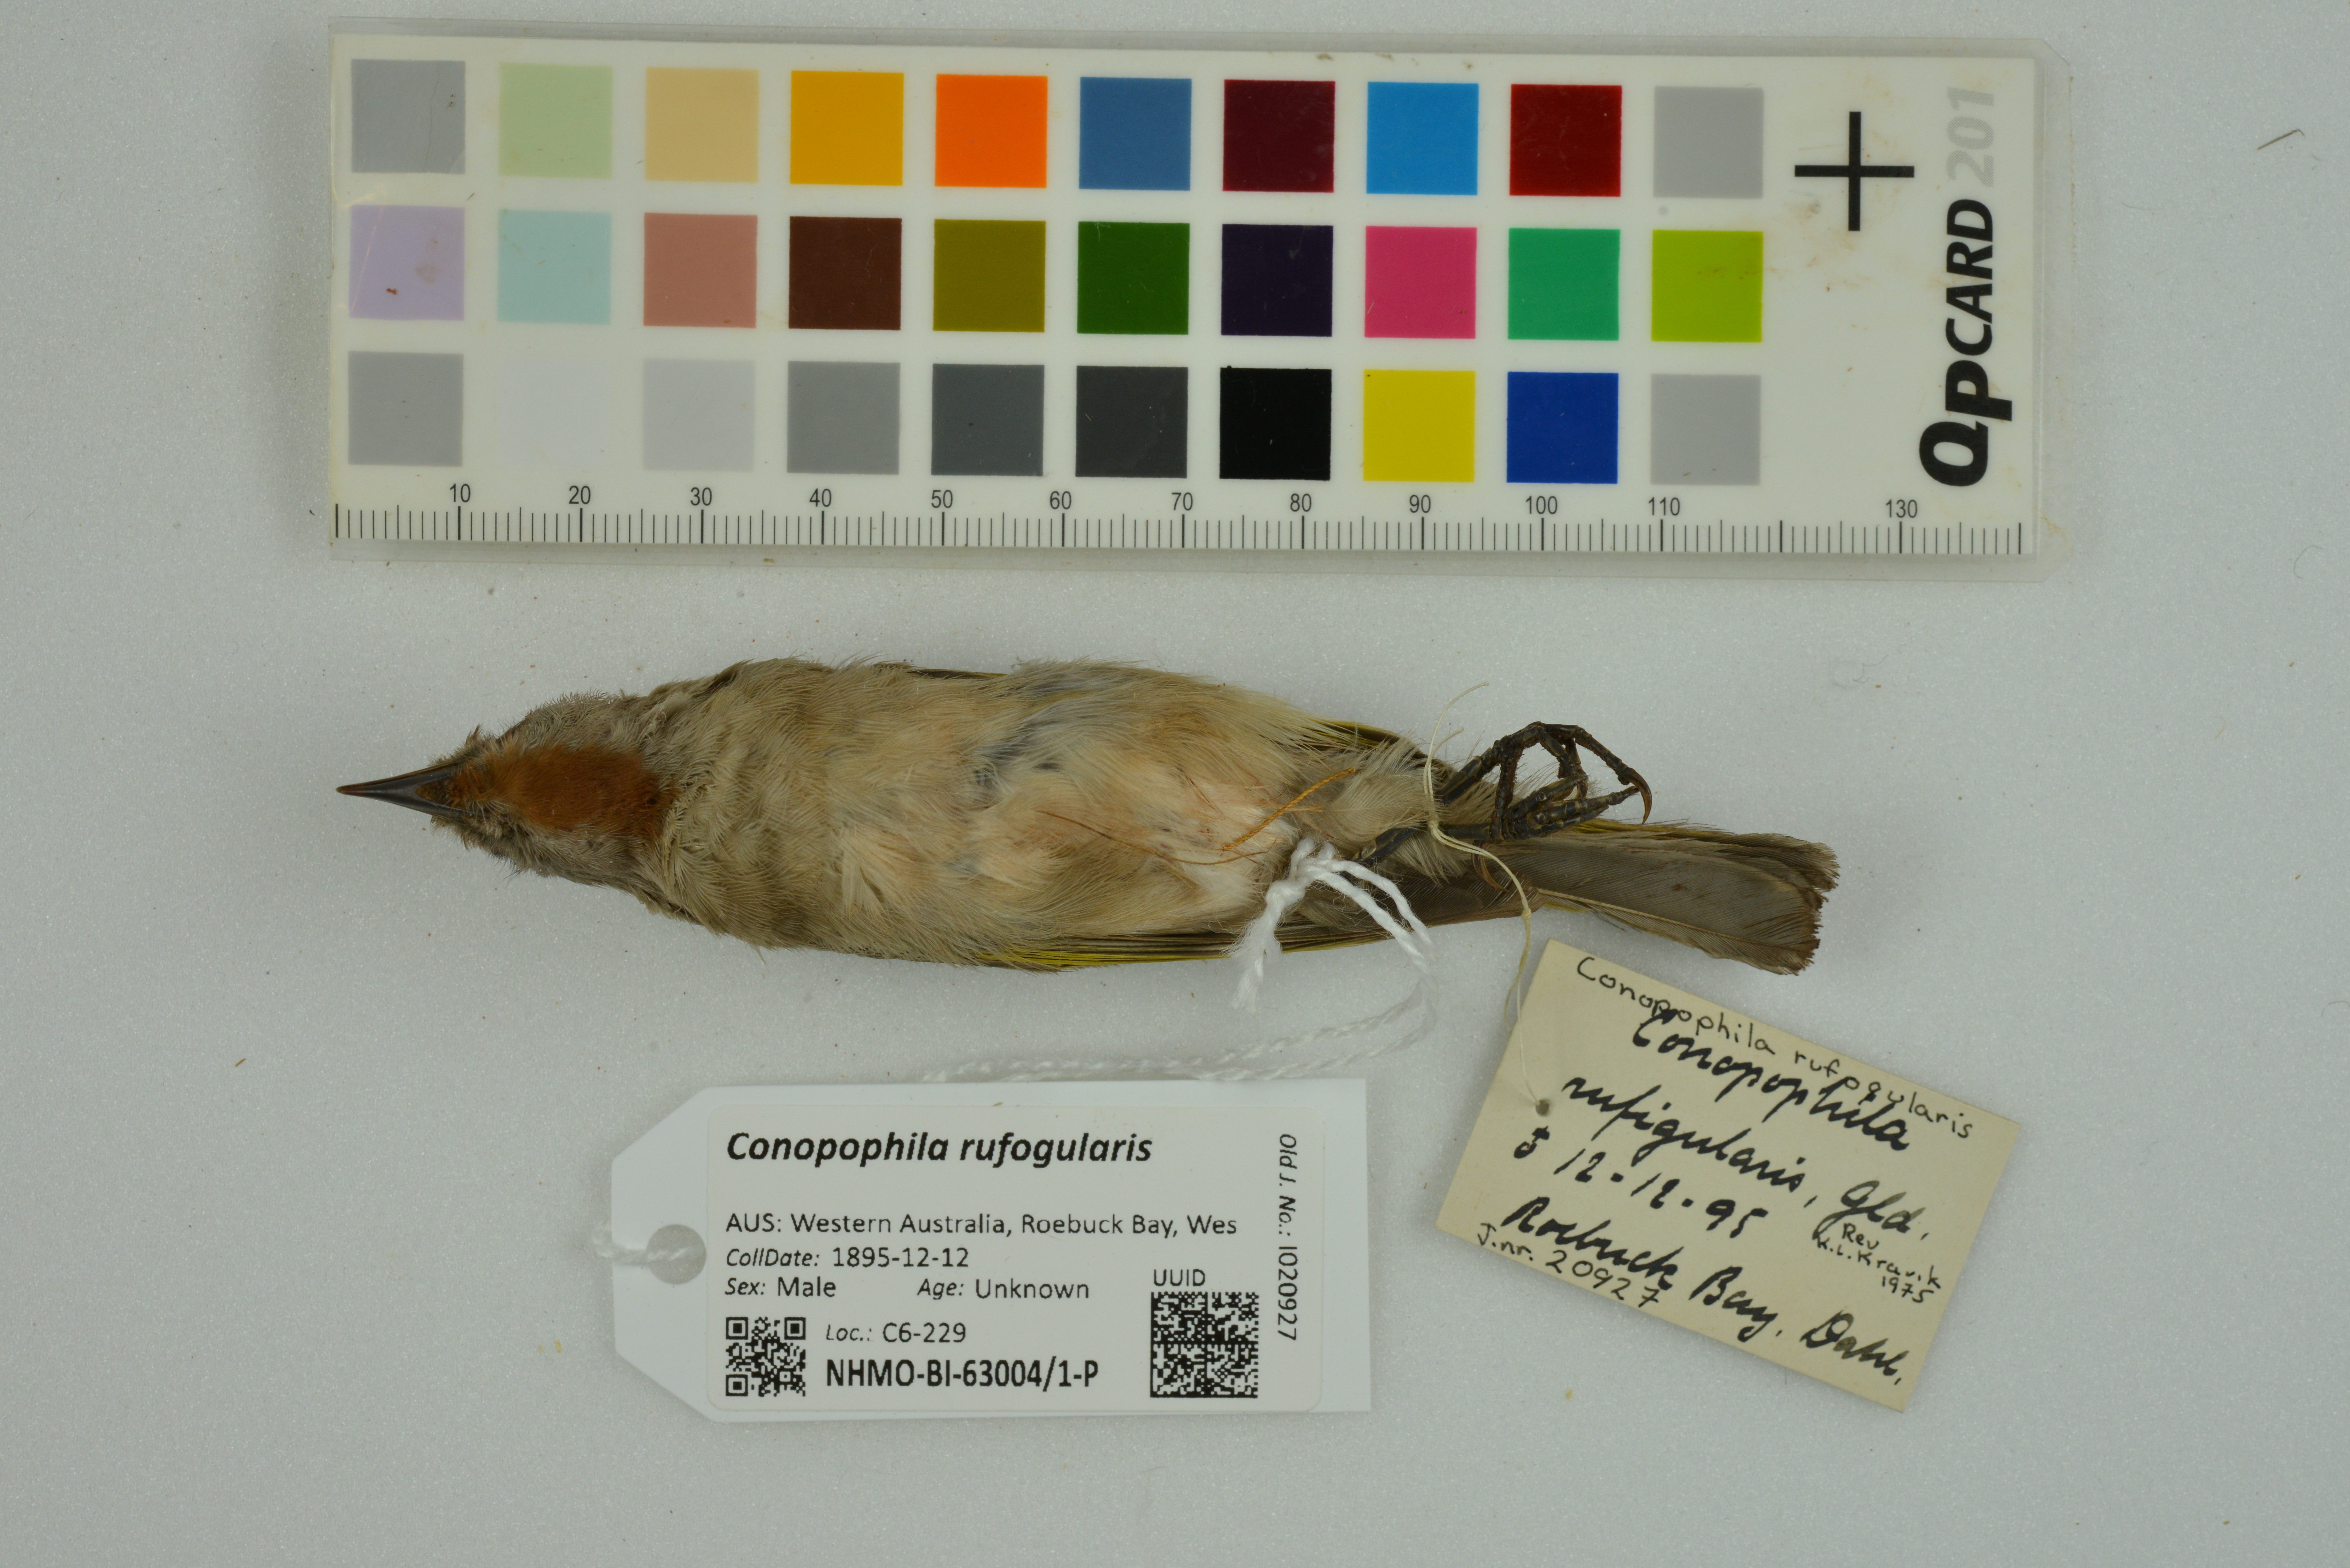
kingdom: Animalia
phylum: Chordata
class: Aves
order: Passeriformes
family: Meliphagidae
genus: Conopophila
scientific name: Conopophila rufogularis
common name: Rufous-throated honeyeater
